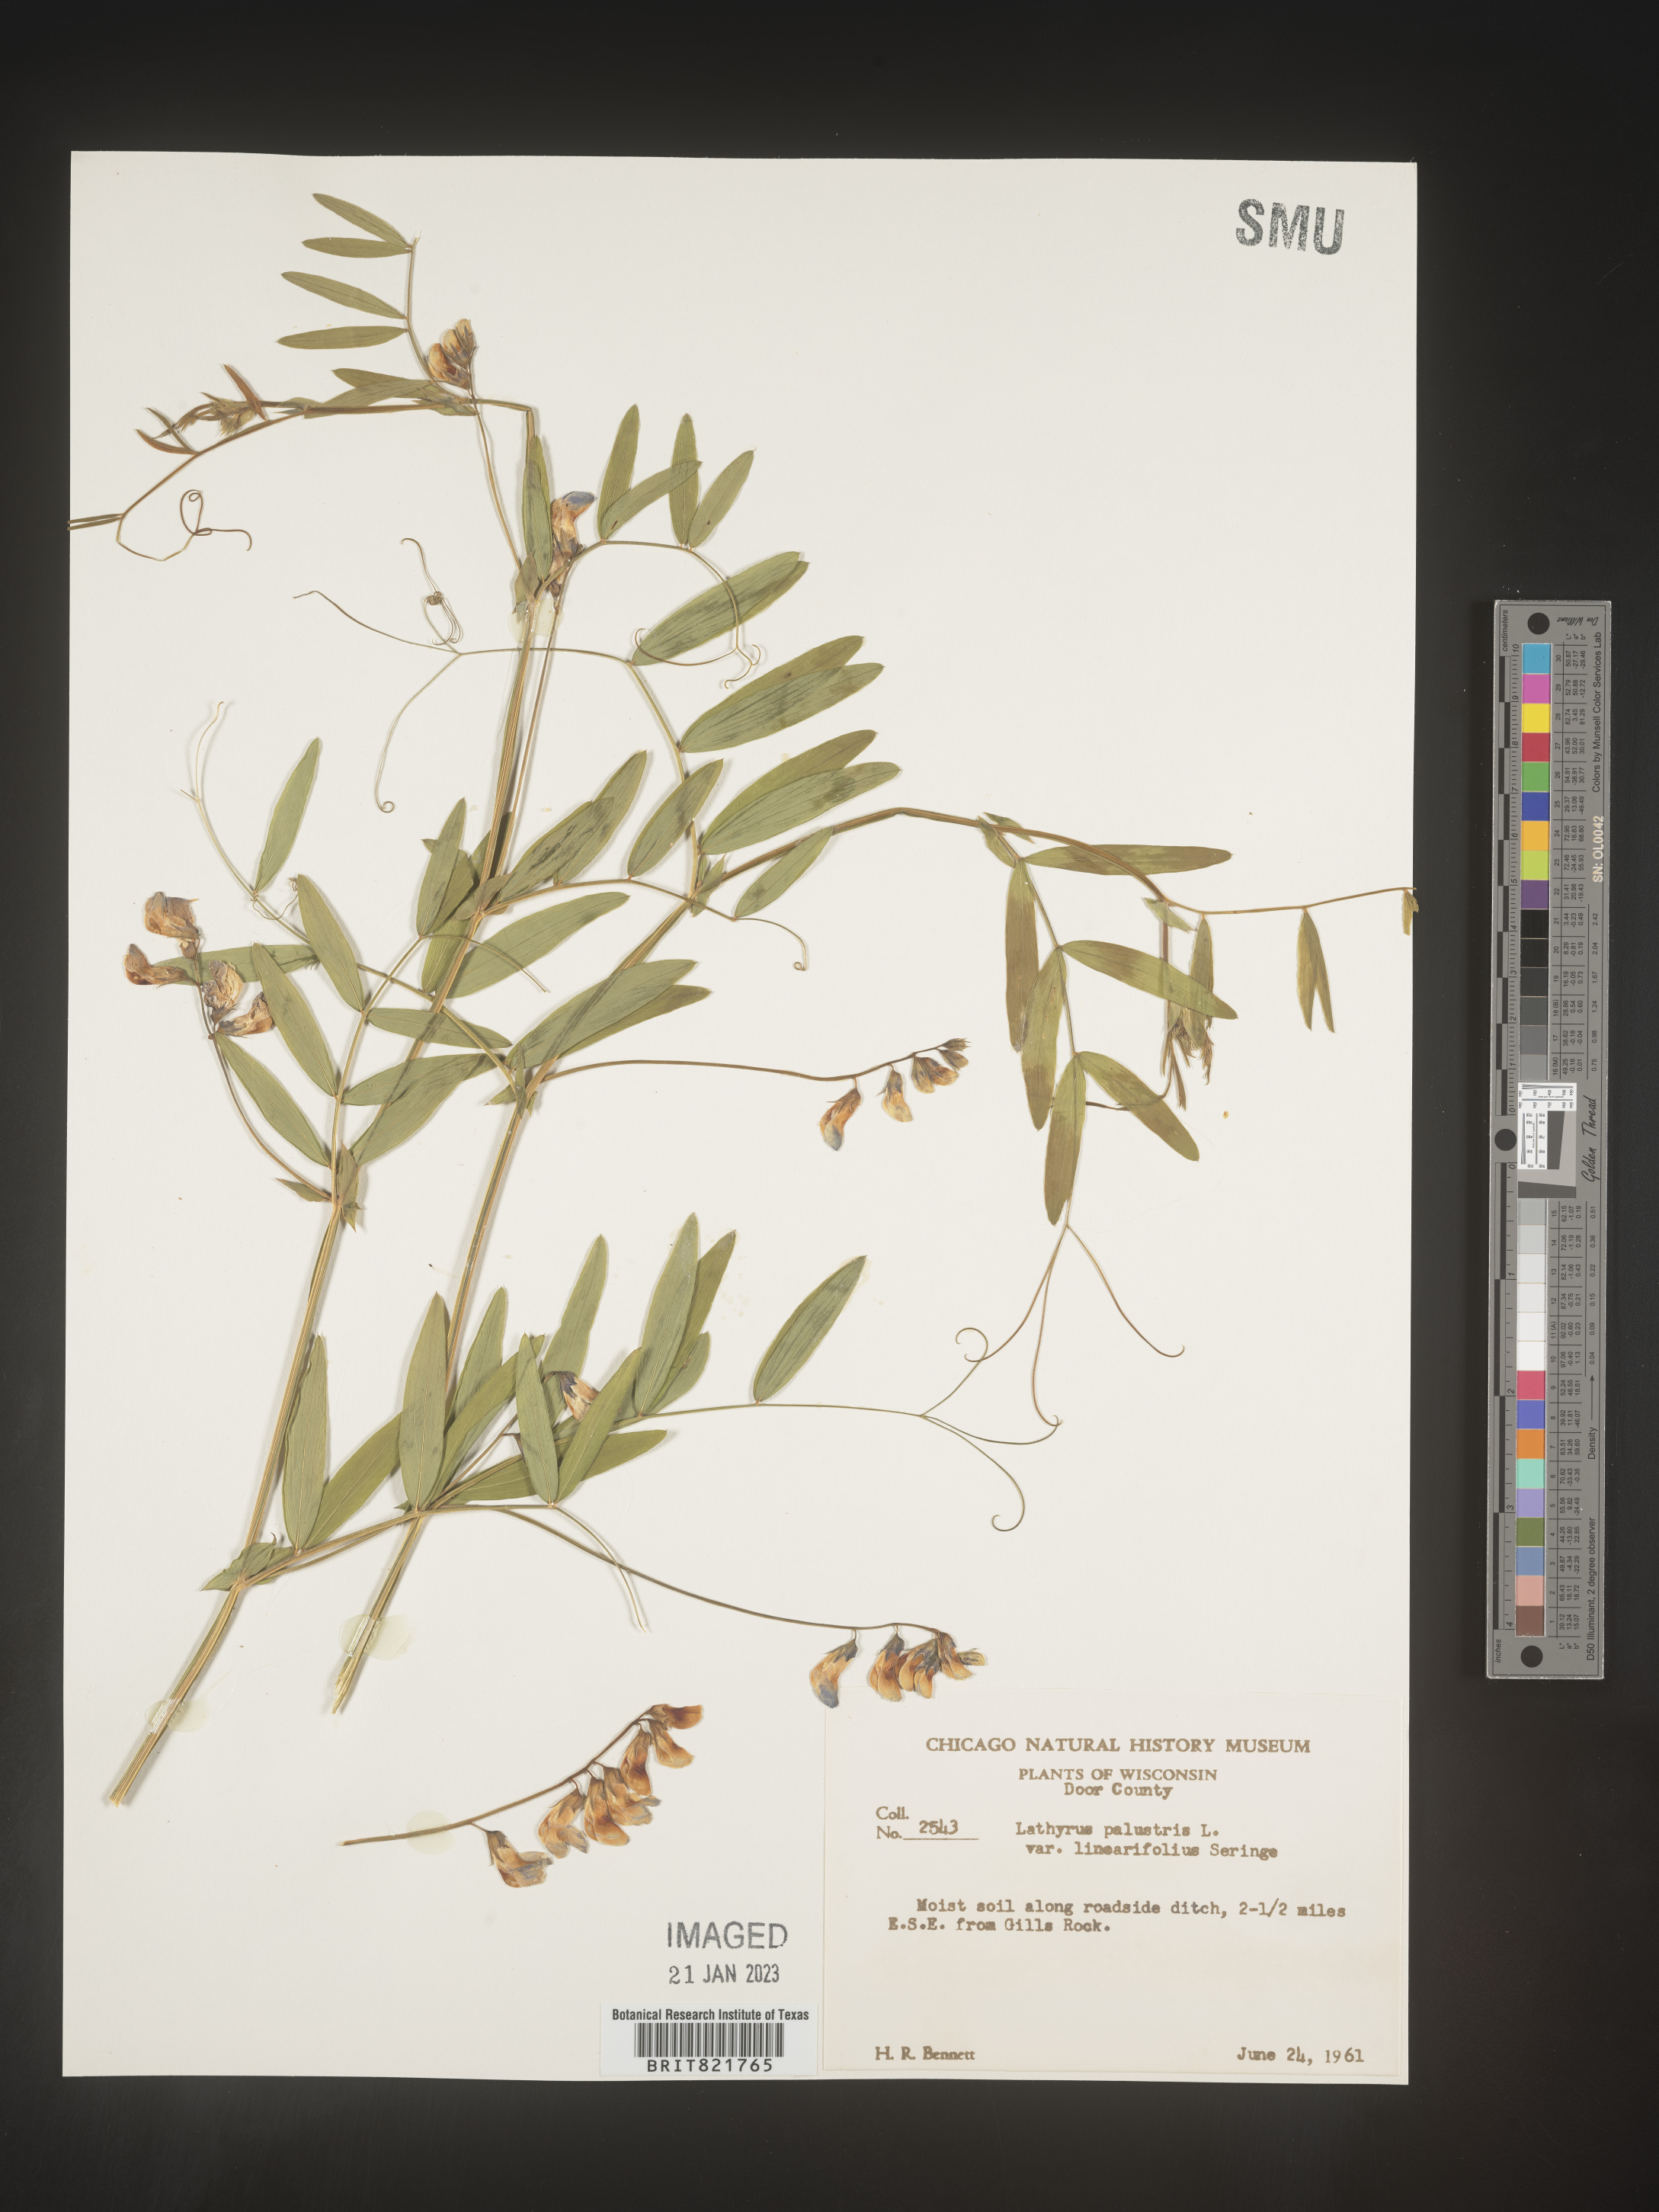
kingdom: Plantae
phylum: Tracheophyta
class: Magnoliopsida
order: Fabales
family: Fabaceae
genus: Lathyrus
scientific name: Lathyrus palustris
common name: Marsh pea
